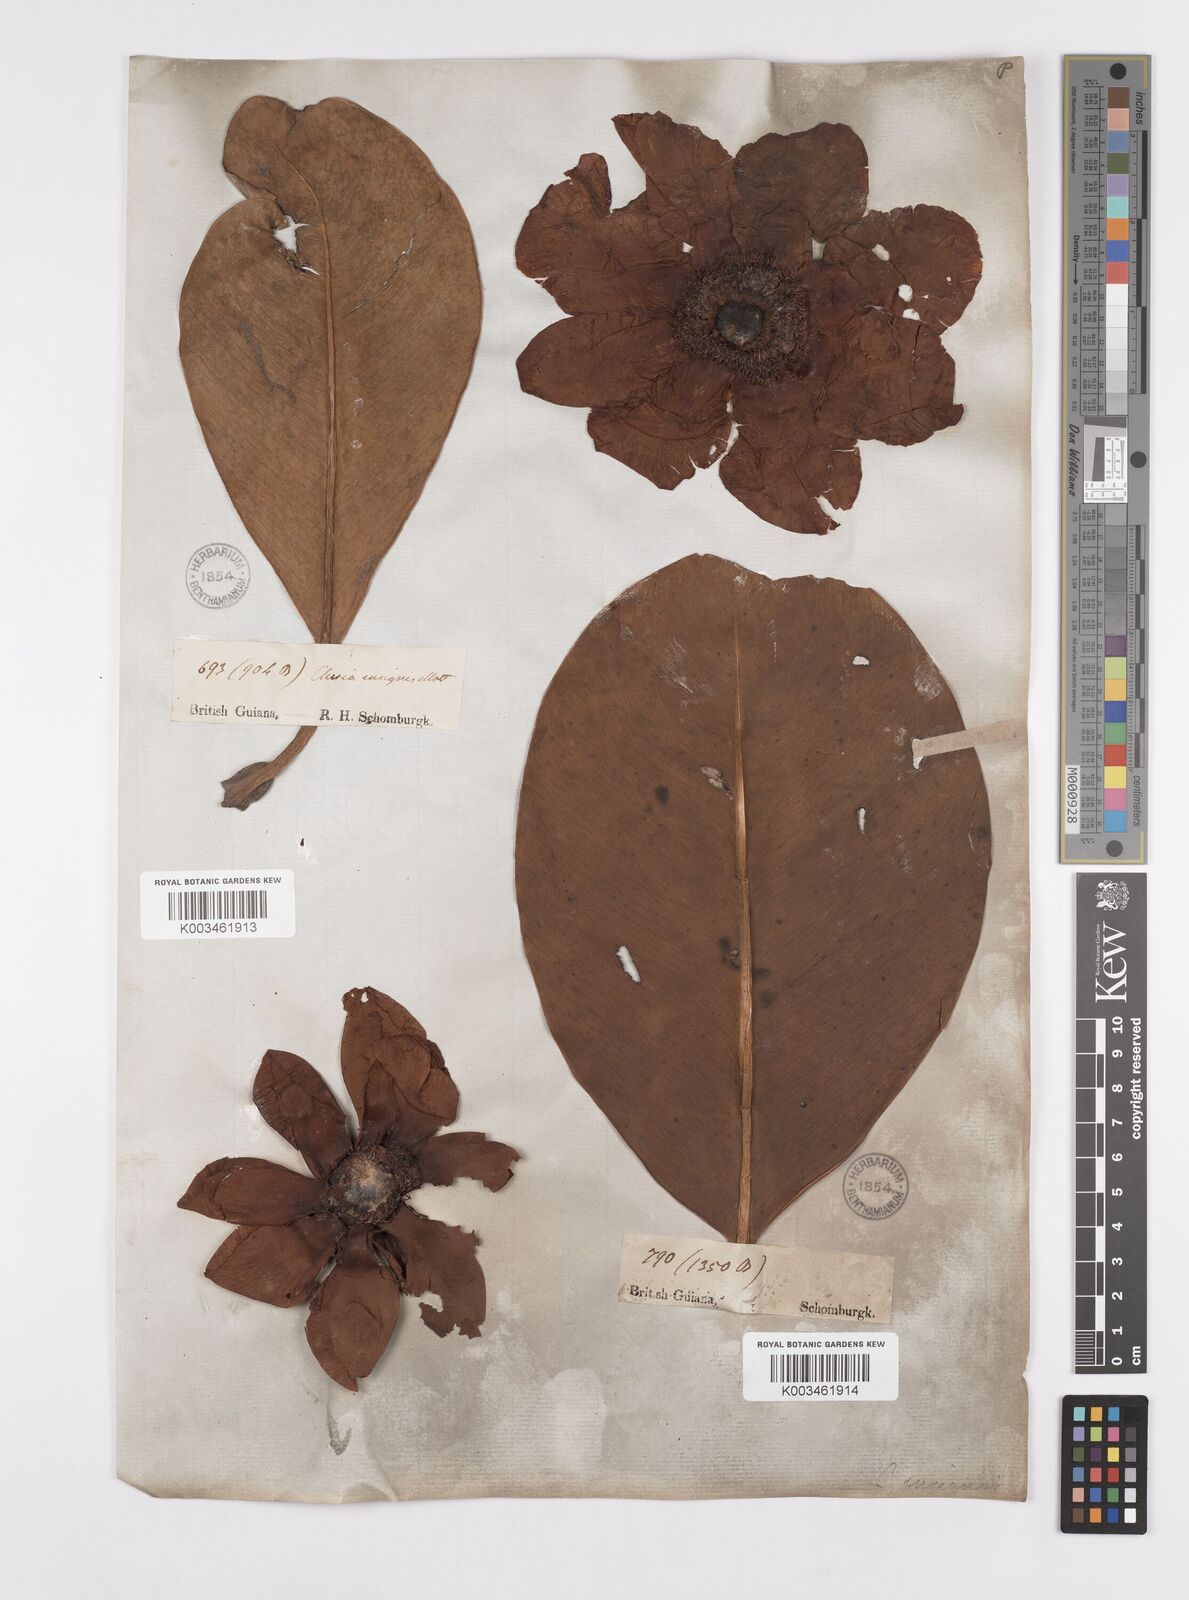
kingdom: Plantae
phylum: Tracheophyta
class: Magnoliopsida
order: Malpighiales
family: Clusiaceae
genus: Clusia
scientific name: Clusia grandiflora
